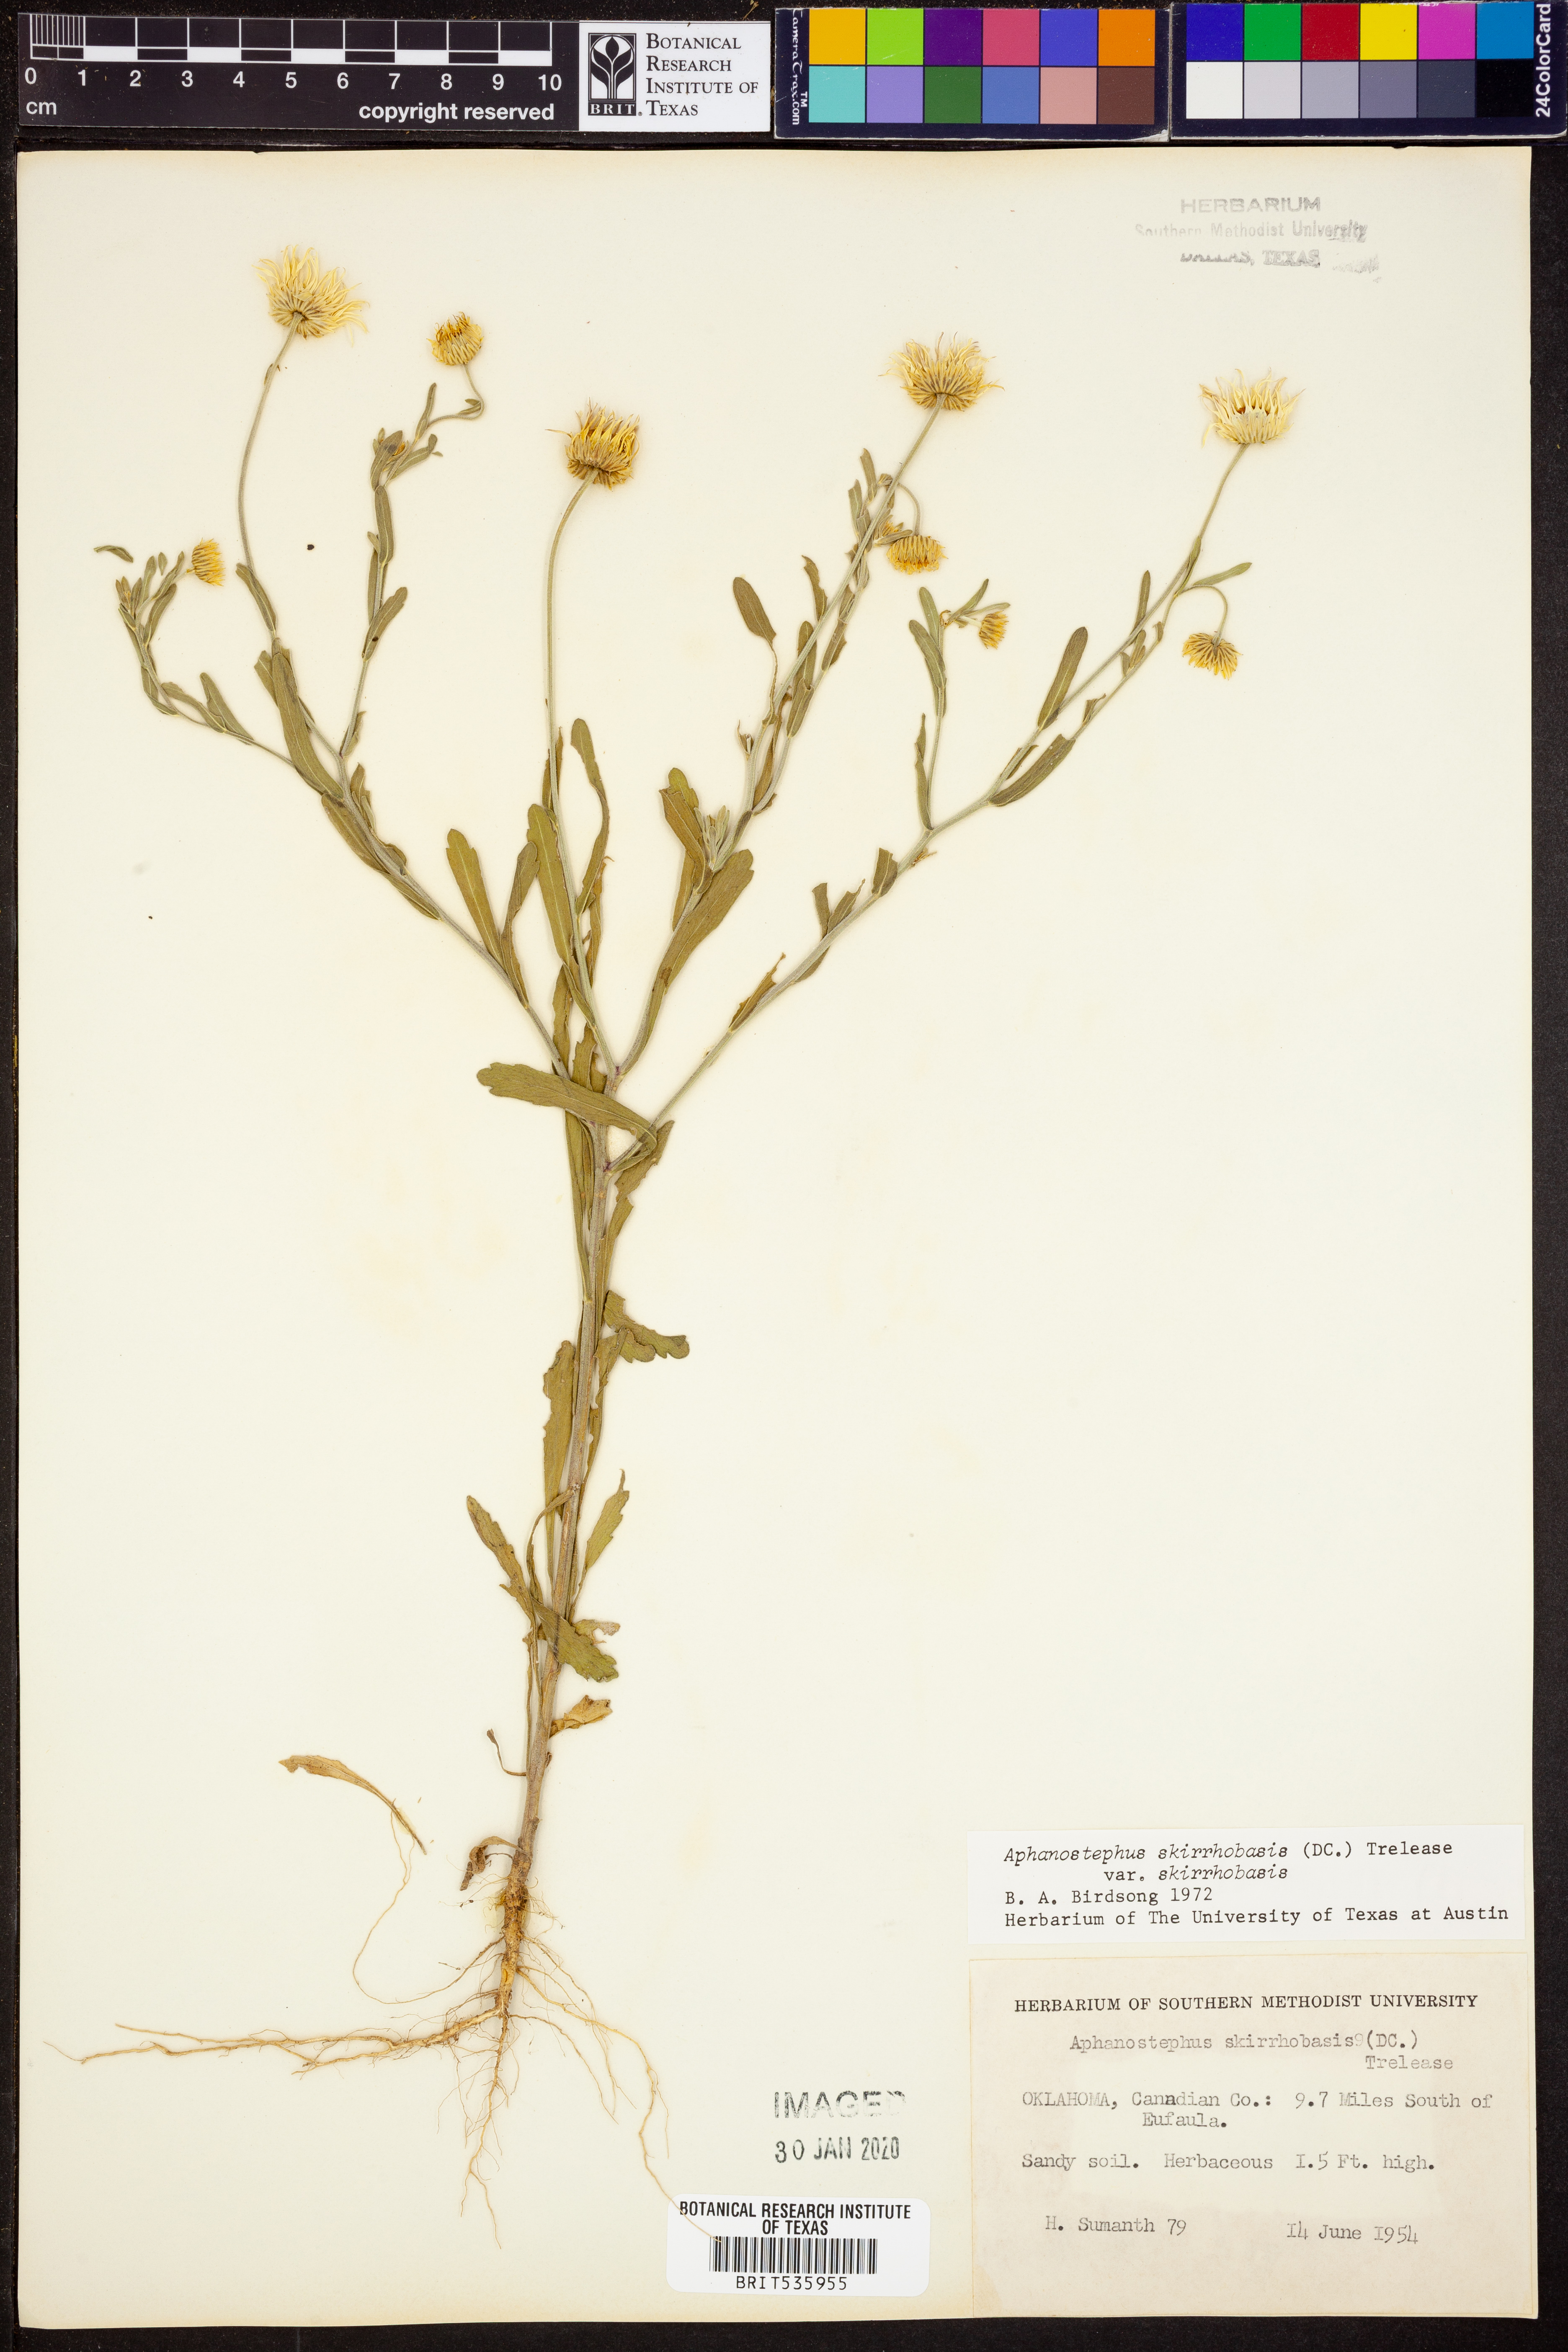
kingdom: Plantae
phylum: Tracheophyta
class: Magnoliopsida
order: Asterales
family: Asteraceae
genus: Aphanostephus
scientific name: Aphanostephus skirrhobasis
